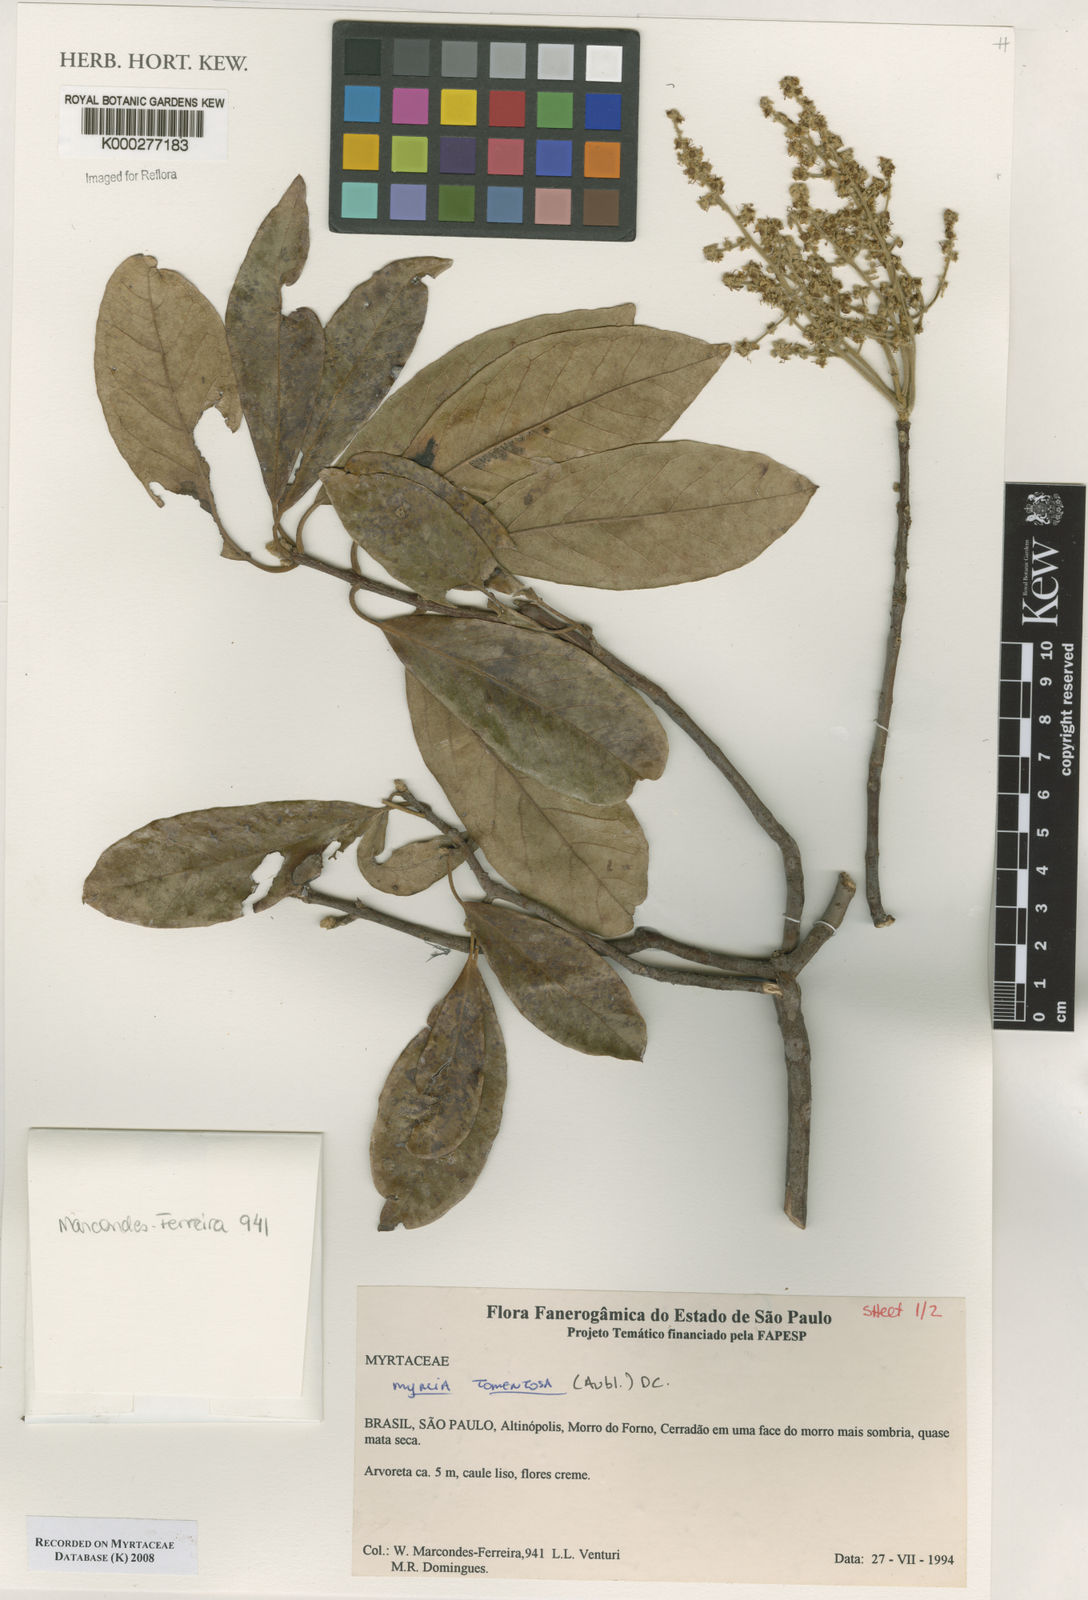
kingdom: Plantae
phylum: Tracheophyta
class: Magnoliopsida
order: Myrtales
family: Myrtaceae
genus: Myrcia
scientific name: Myrcia tomentosa
